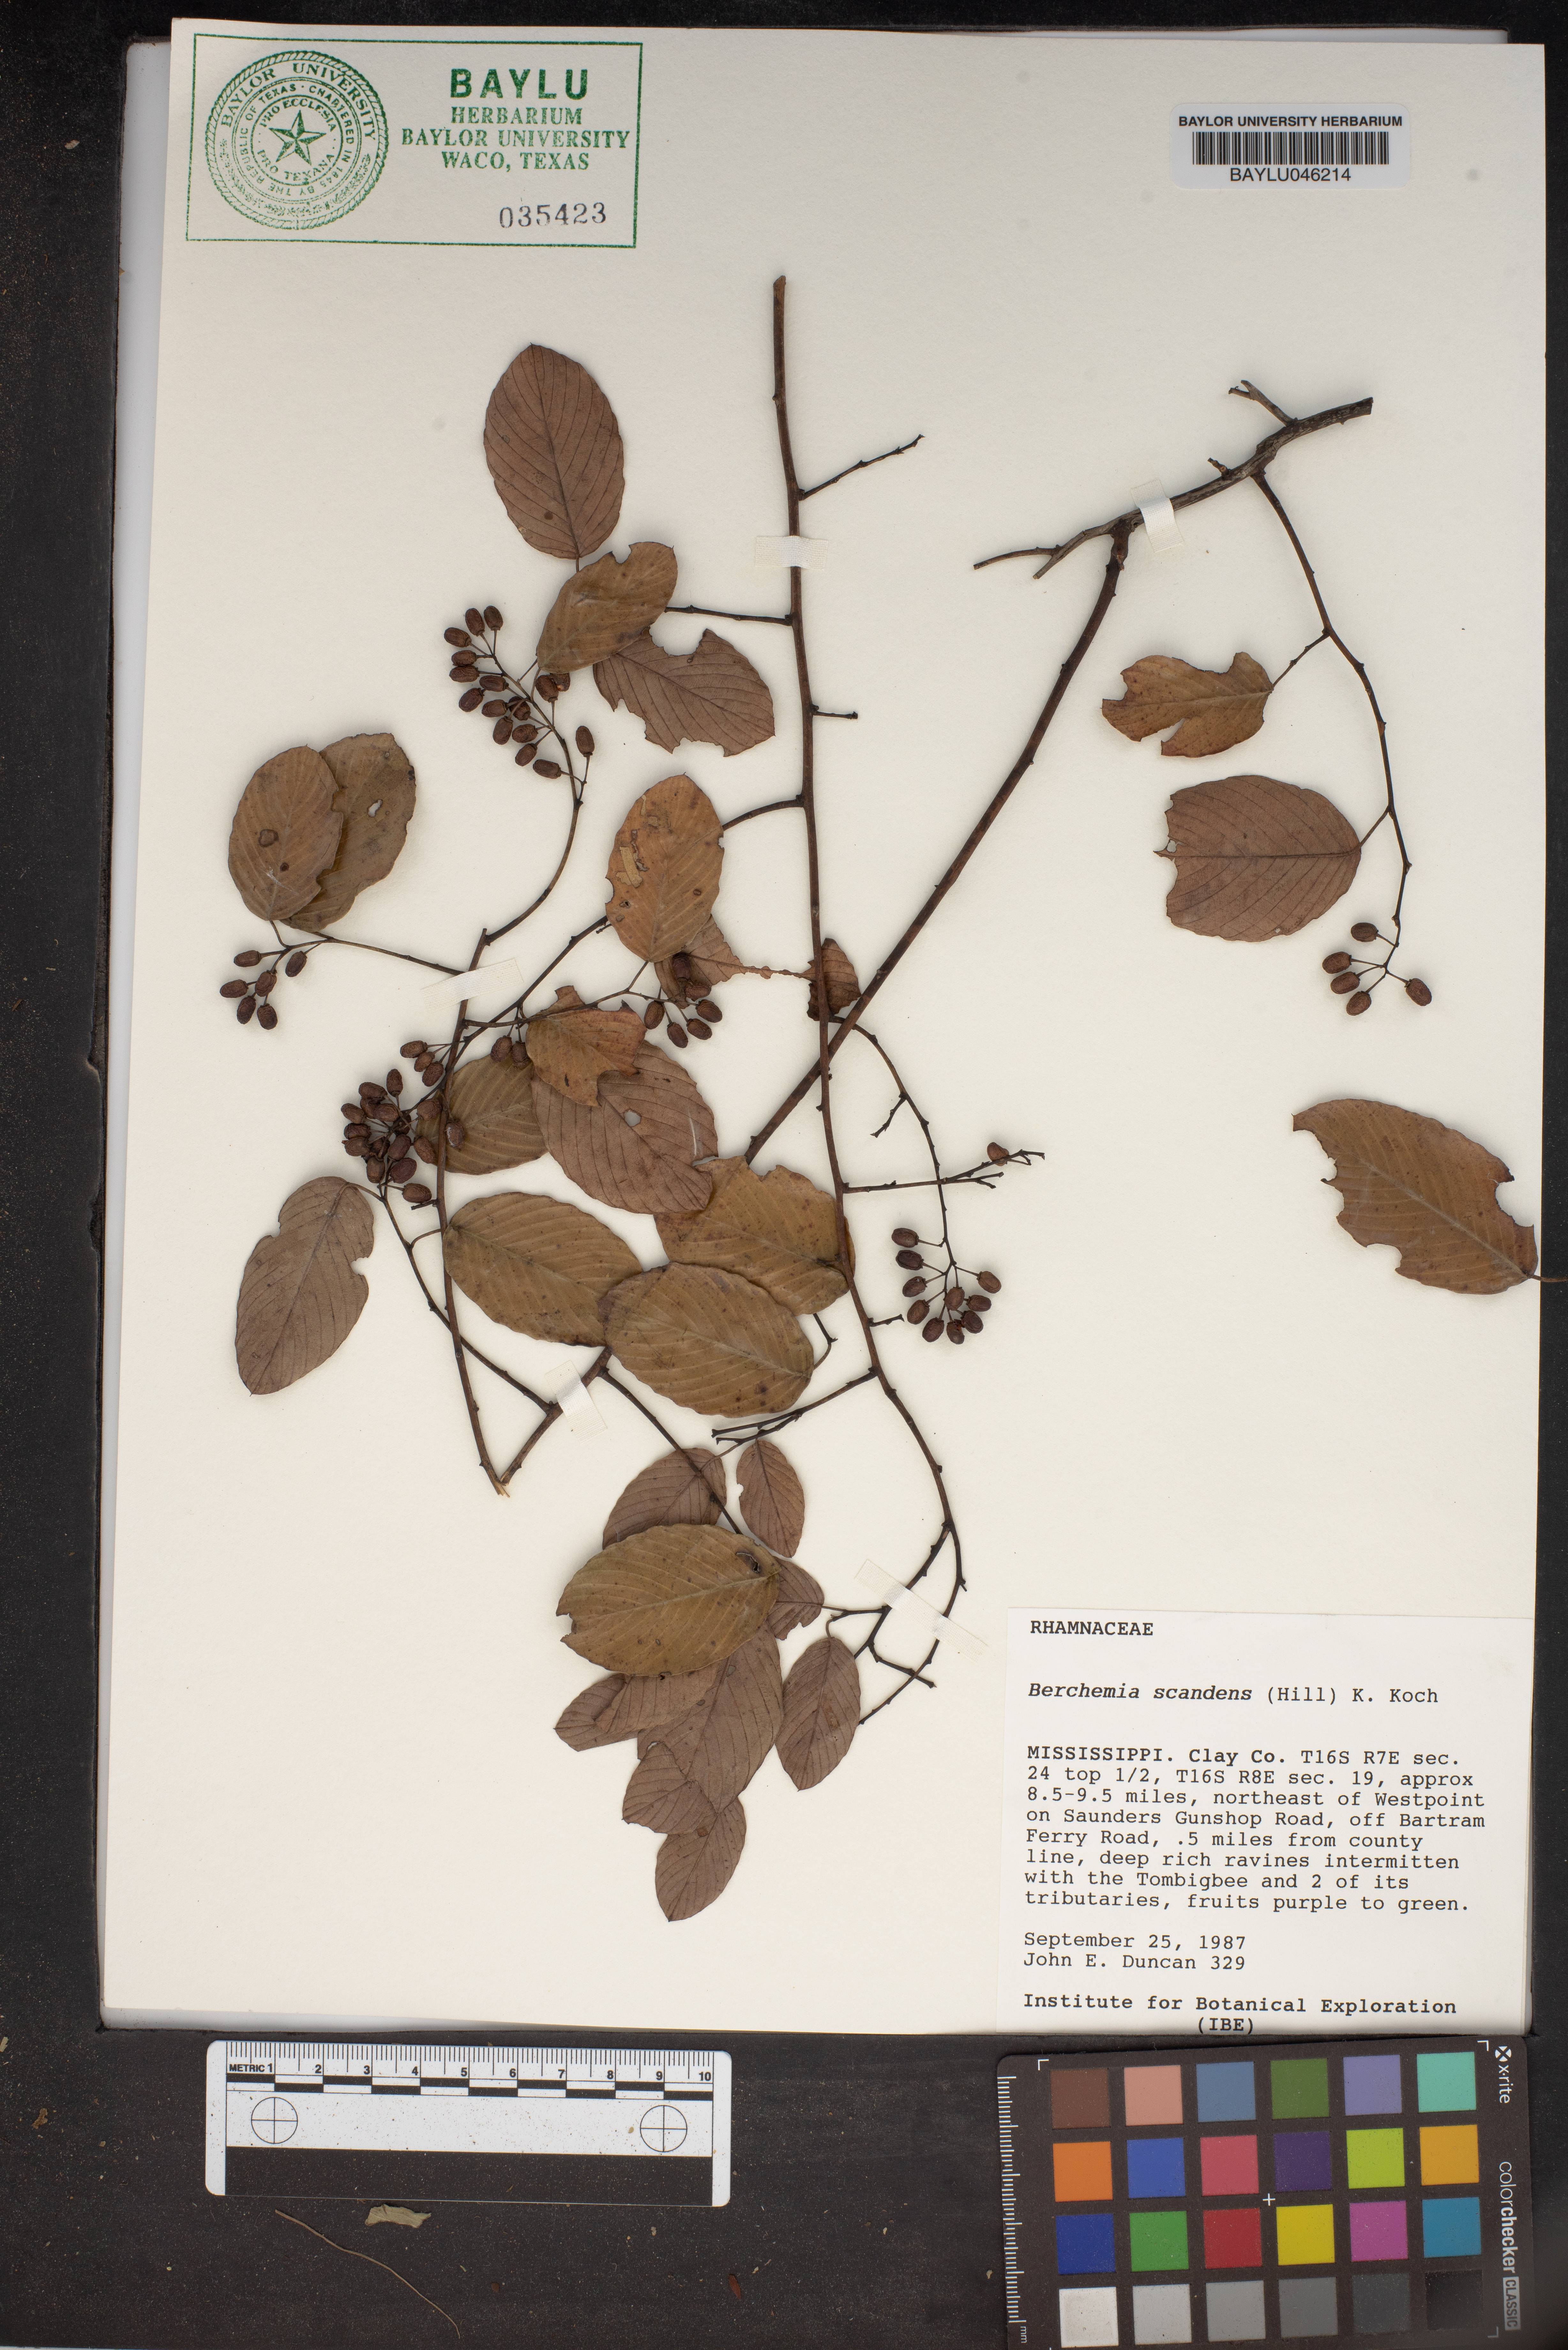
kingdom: Plantae
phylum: Tracheophyta
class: Magnoliopsida
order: Rosales
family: Rhamnaceae
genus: Berchemia
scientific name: Berchemia scandens
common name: Supplejack
